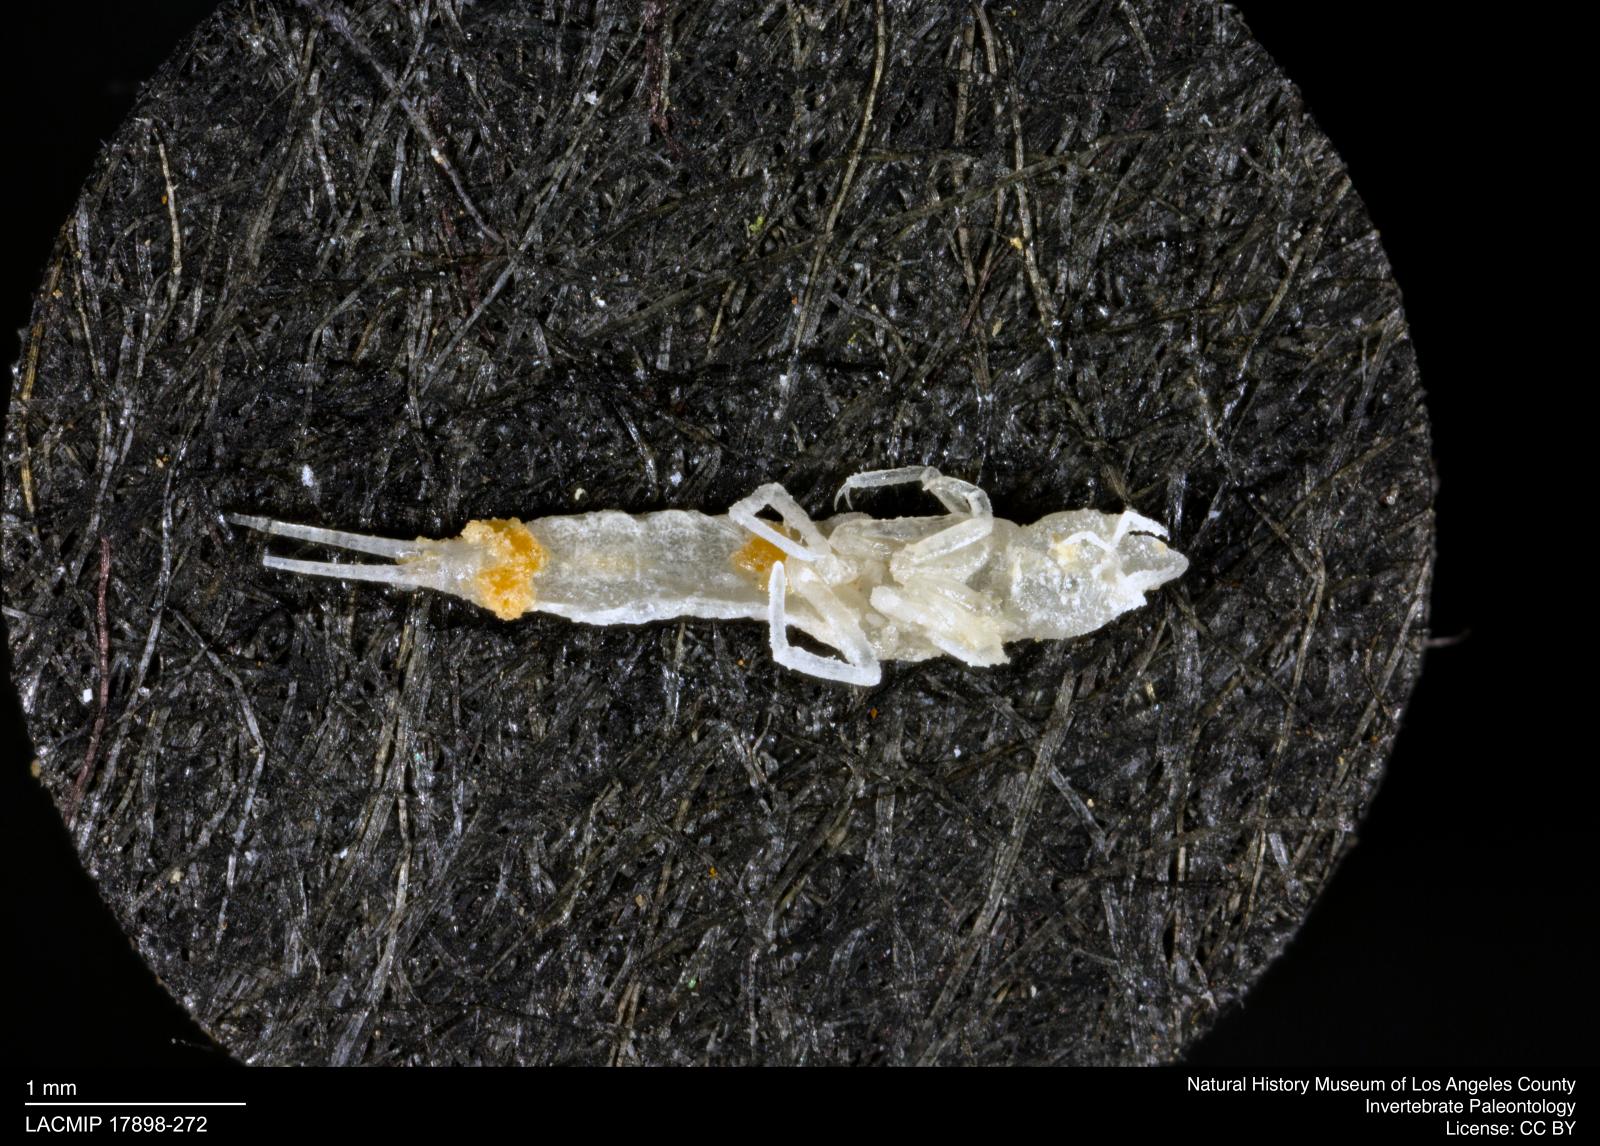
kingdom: Animalia
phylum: Arthropoda
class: Insecta
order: Coleoptera
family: Dytiscidae
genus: Schistomerus
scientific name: Schistomerus californense
